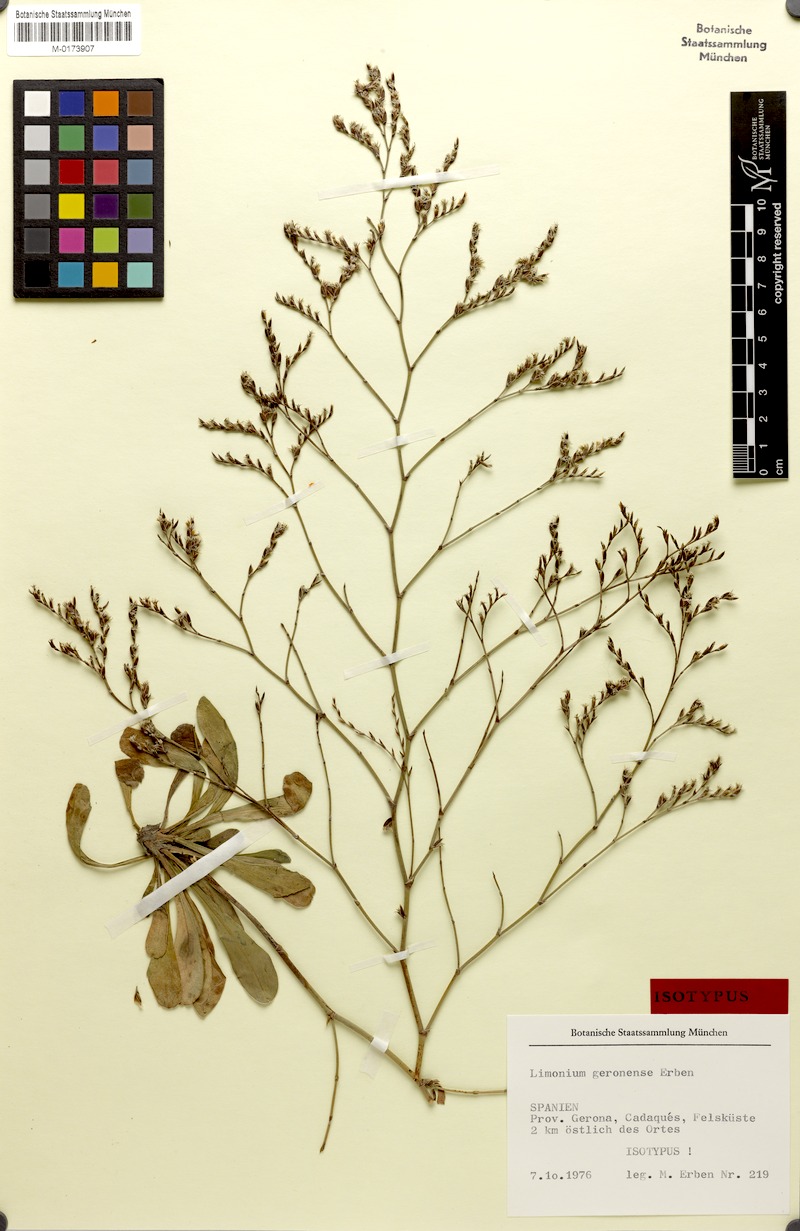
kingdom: Plantae
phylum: Tracheophyta
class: Magnoliopsida
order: Caryophyllales
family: Plumbaginaceae
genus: Limonium
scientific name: Limonium geronense
